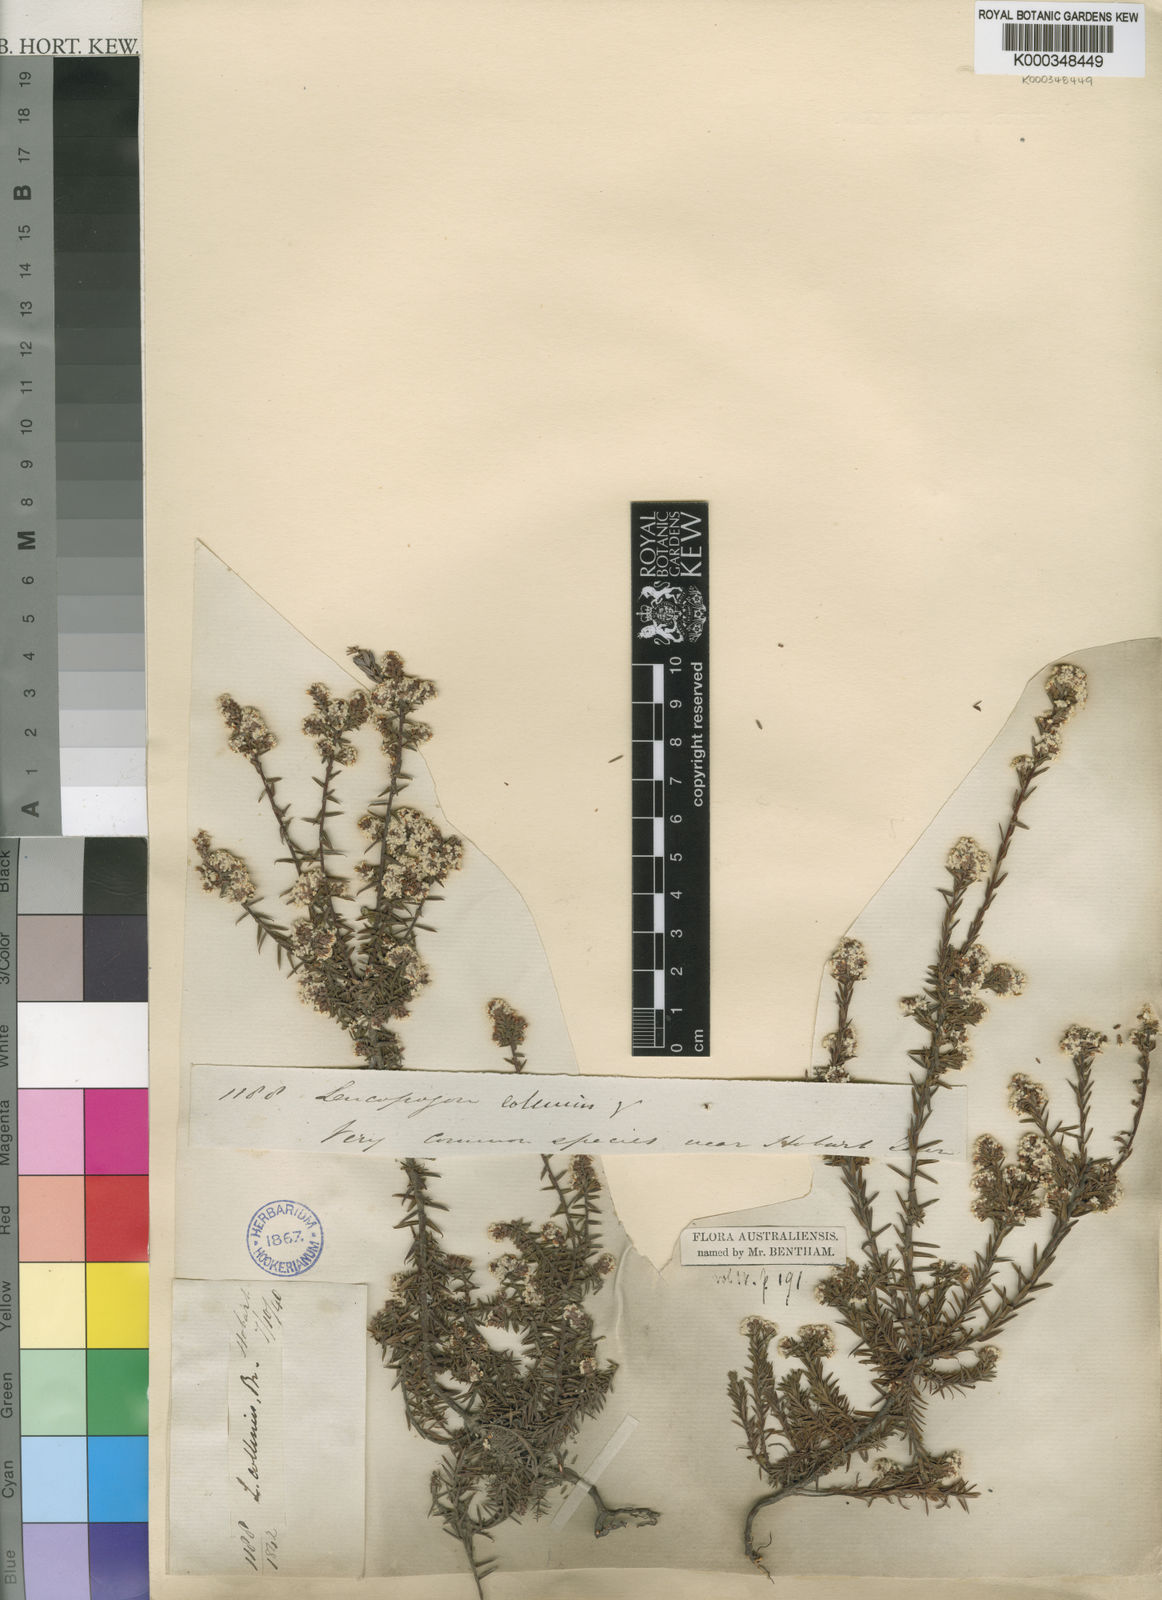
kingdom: Plantae
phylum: Tracheophyta
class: Magnoliopsida
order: Ericales
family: Ericaceae
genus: Leucopogon
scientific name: Leucopogon collinus
